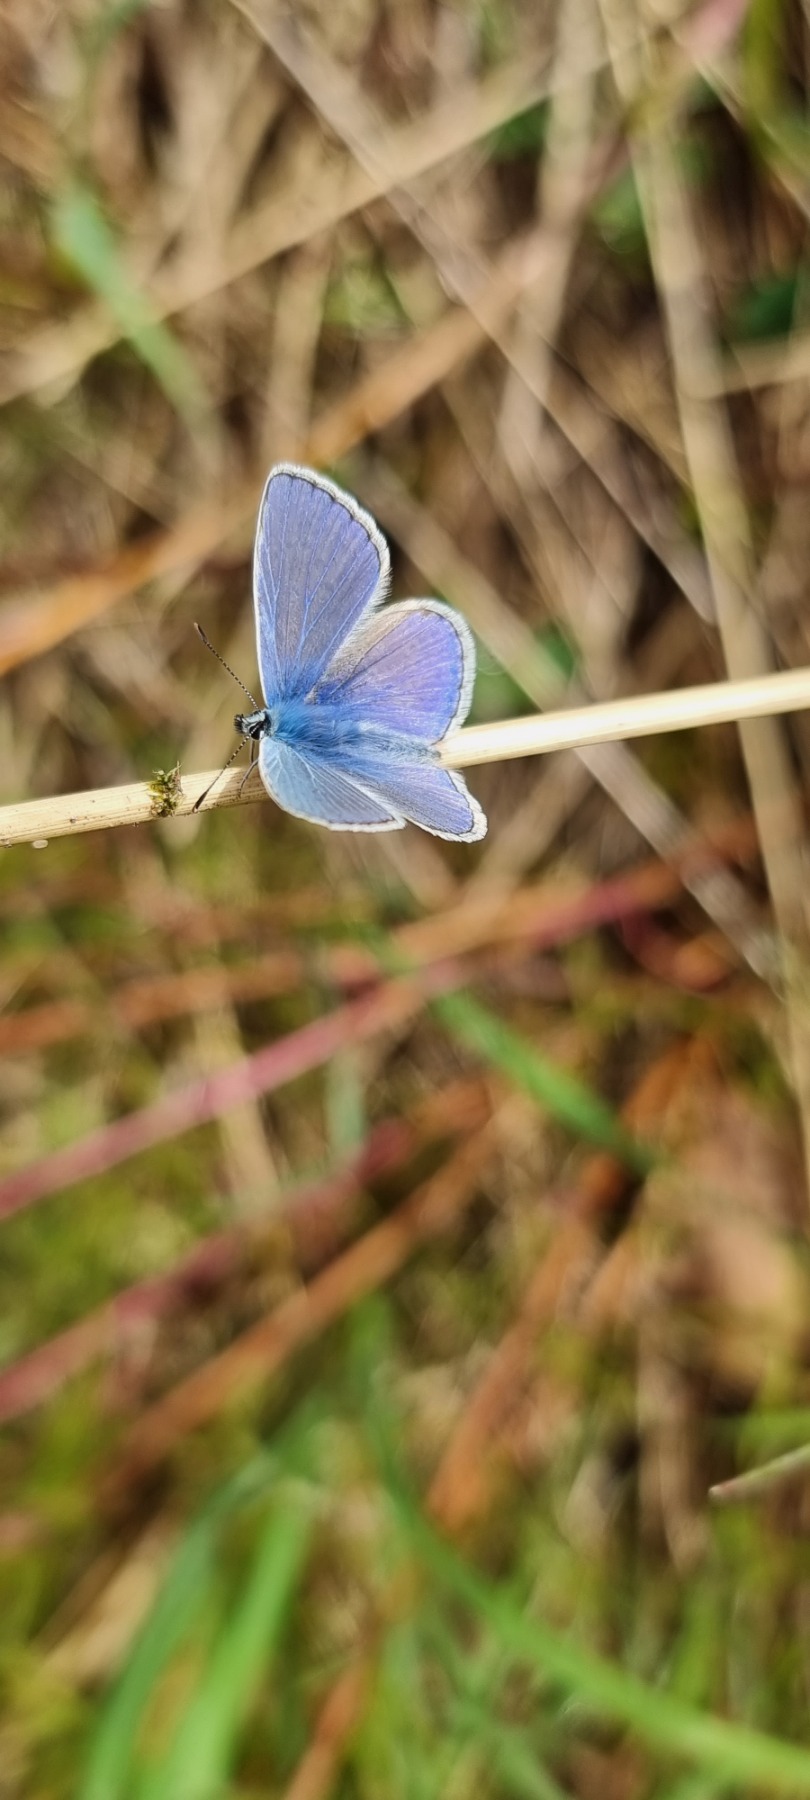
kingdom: Animalia
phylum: Arthropoda
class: Insecta
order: Lepidoptera
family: Lycaenidae
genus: Polyommatus
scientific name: Polyommatus icarus
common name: Almindelig blåfugl
